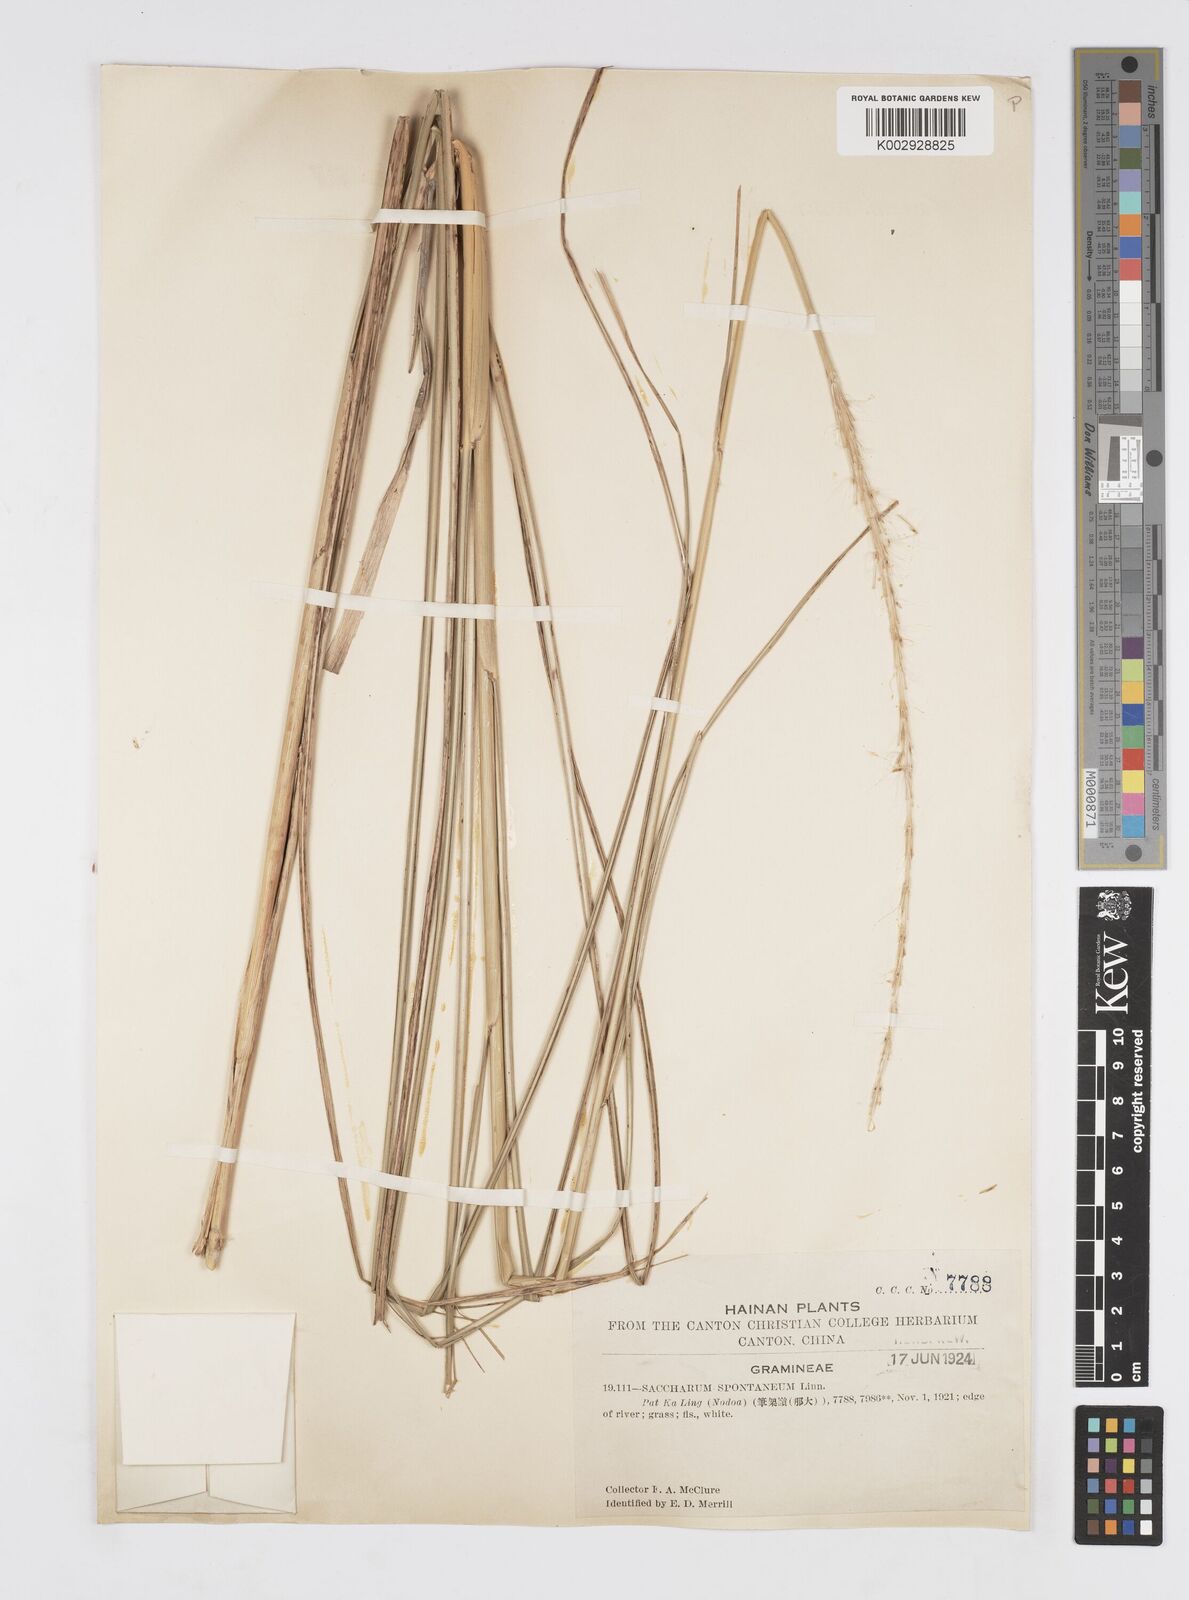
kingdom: Plantae
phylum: Tracheophyta
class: Liliopsida
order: Poales
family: Poaceae
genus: Saccharum
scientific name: Saccharum spontaneum
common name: Wild sugarcane
